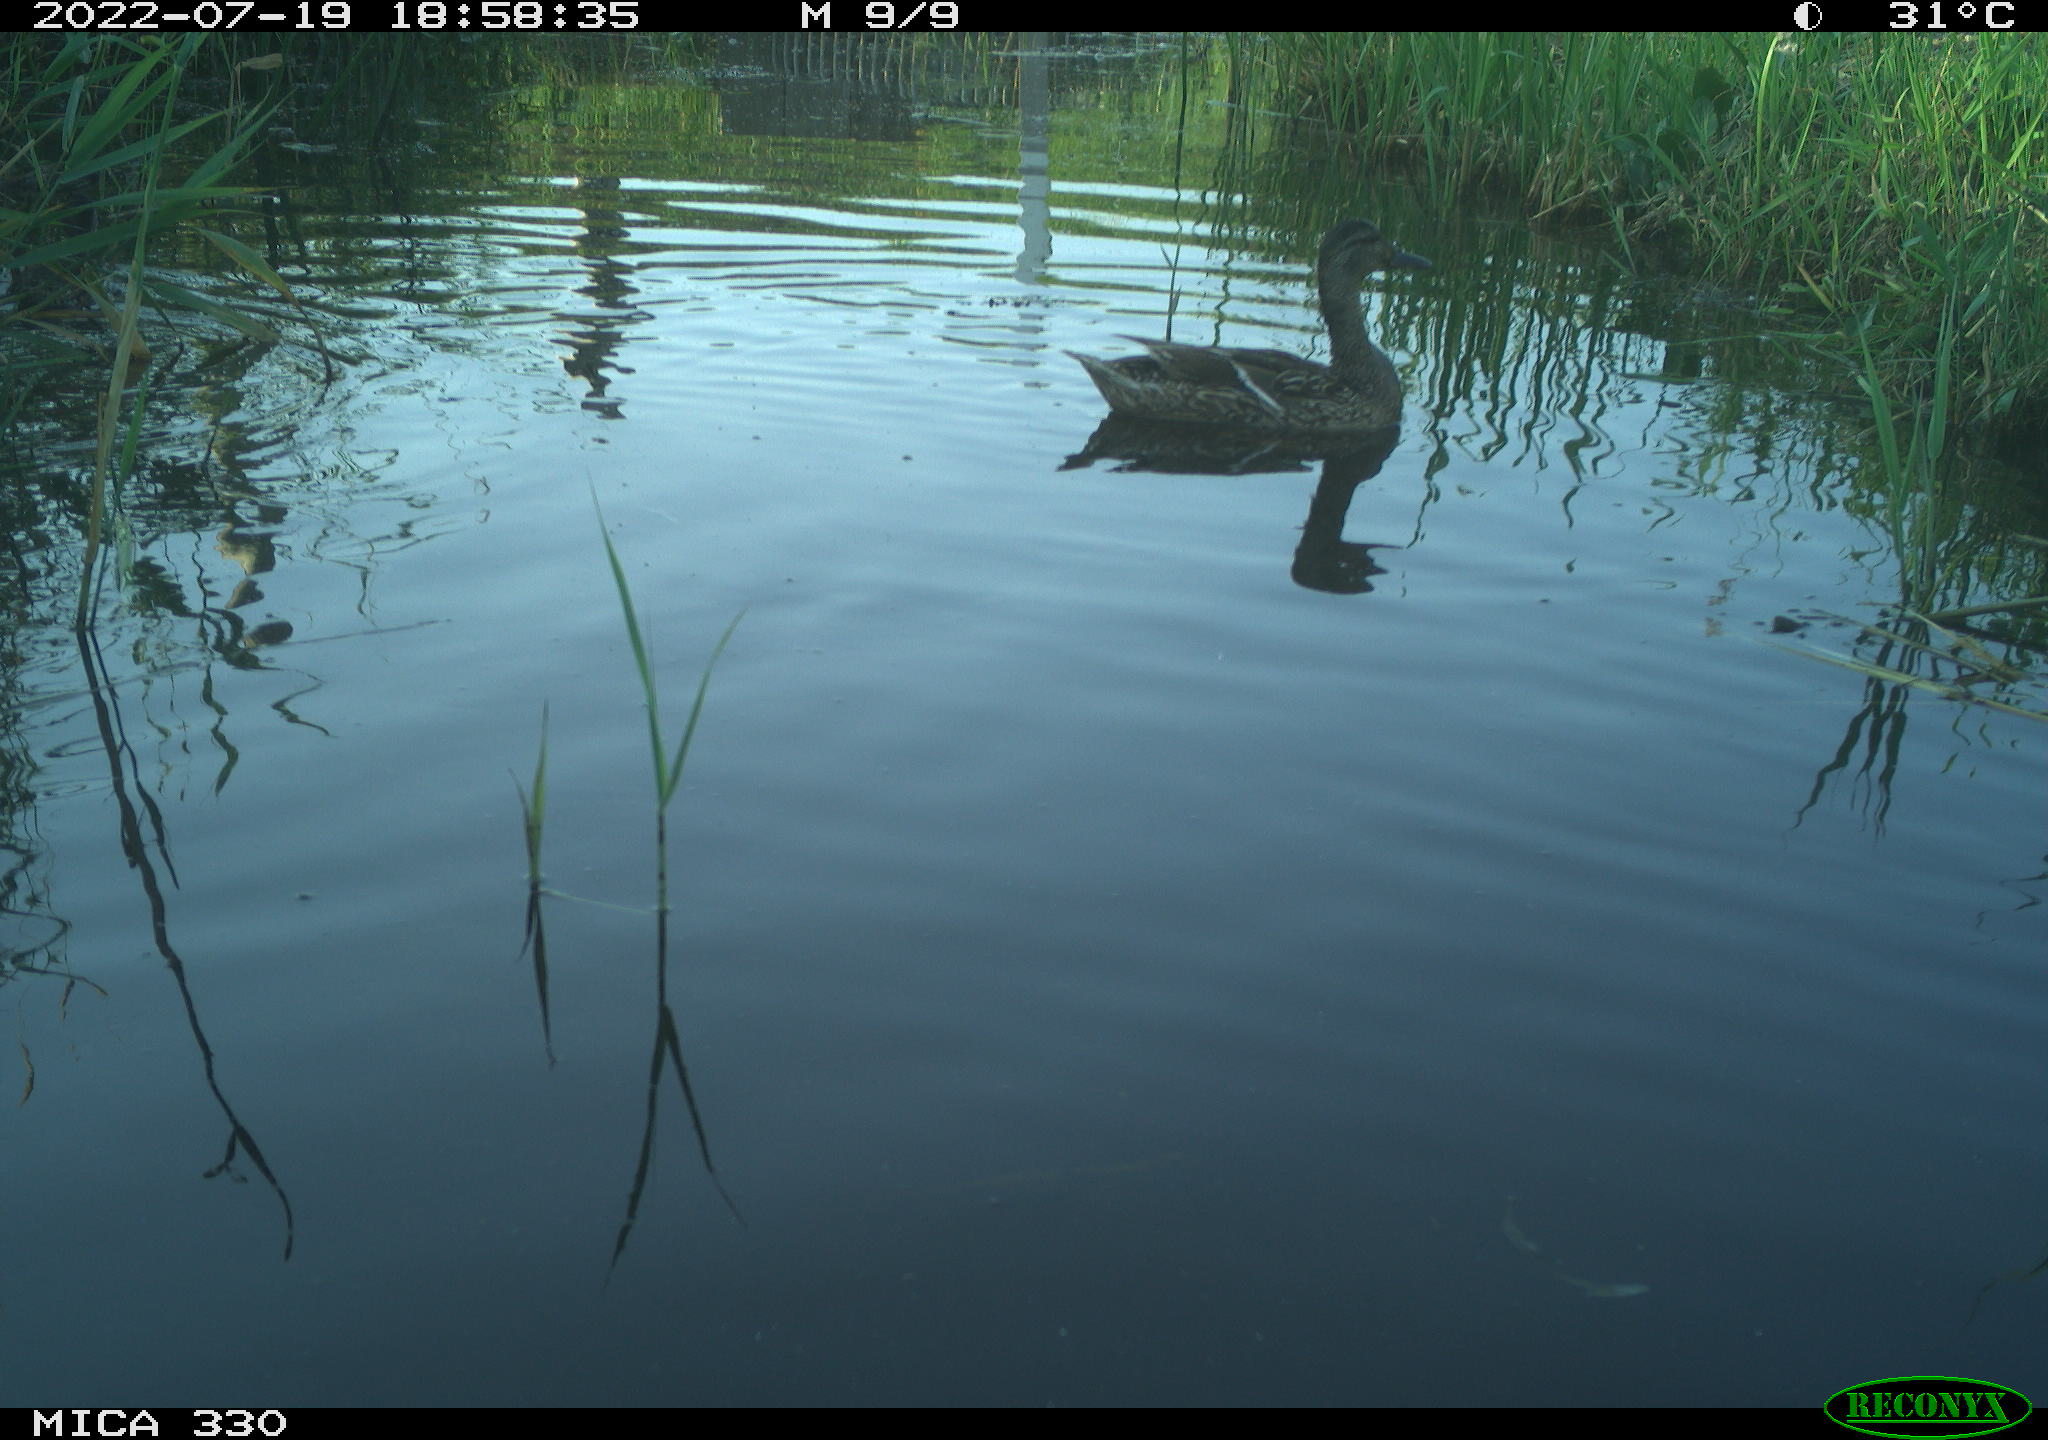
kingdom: Animalia
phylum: Chordata
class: Aves
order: Anseriformes
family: Anatidae
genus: Mareca
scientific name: Mareca strepera
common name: Gadwall
